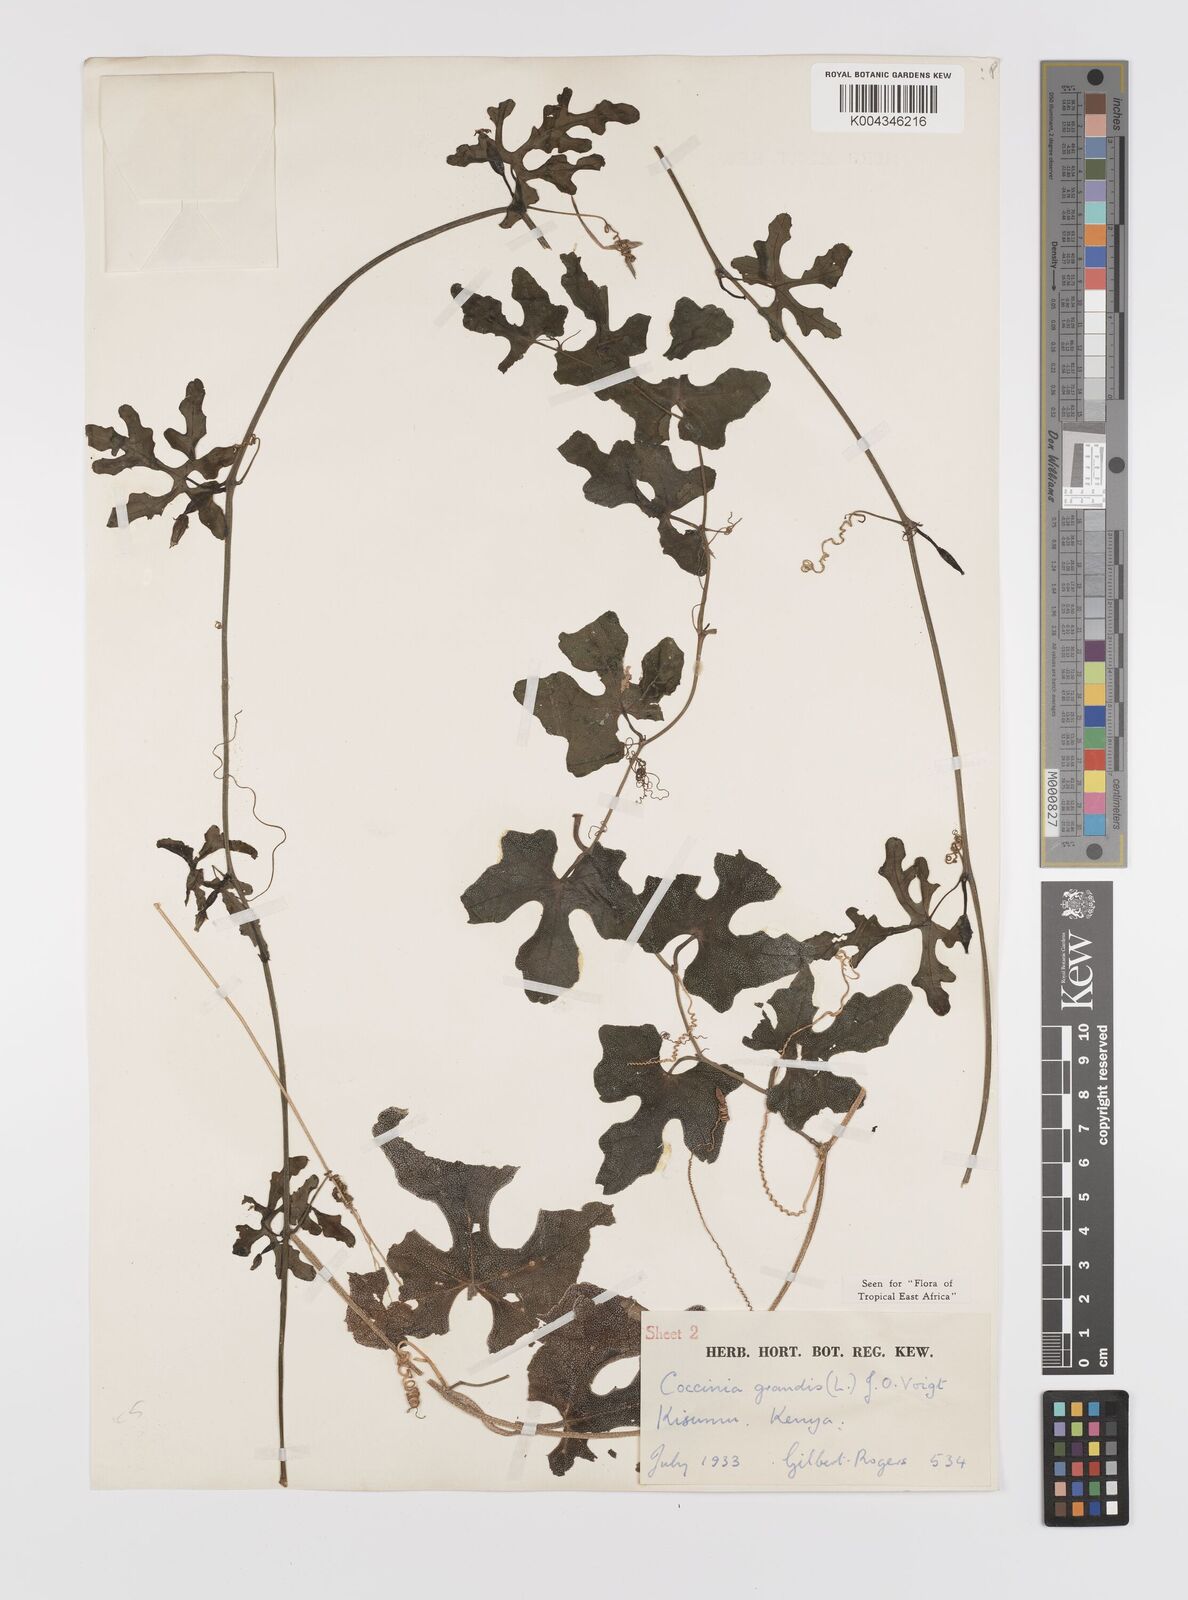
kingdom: Plantae
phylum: Tracheophyta
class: Magnoliopsida
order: Cucurbitales
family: Cucurbitaceae
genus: Coccinia
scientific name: Coccinia grandis
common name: Ivy gourd
